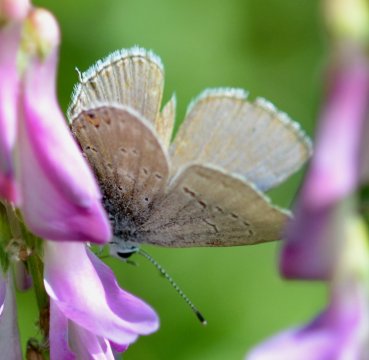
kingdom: Animalia
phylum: Arthropoda
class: Insecta
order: Lepidoptera
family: Lycaenidae
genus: Elkalyce
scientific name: Elkalyce amyntula
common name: Western Tailed-Blue
